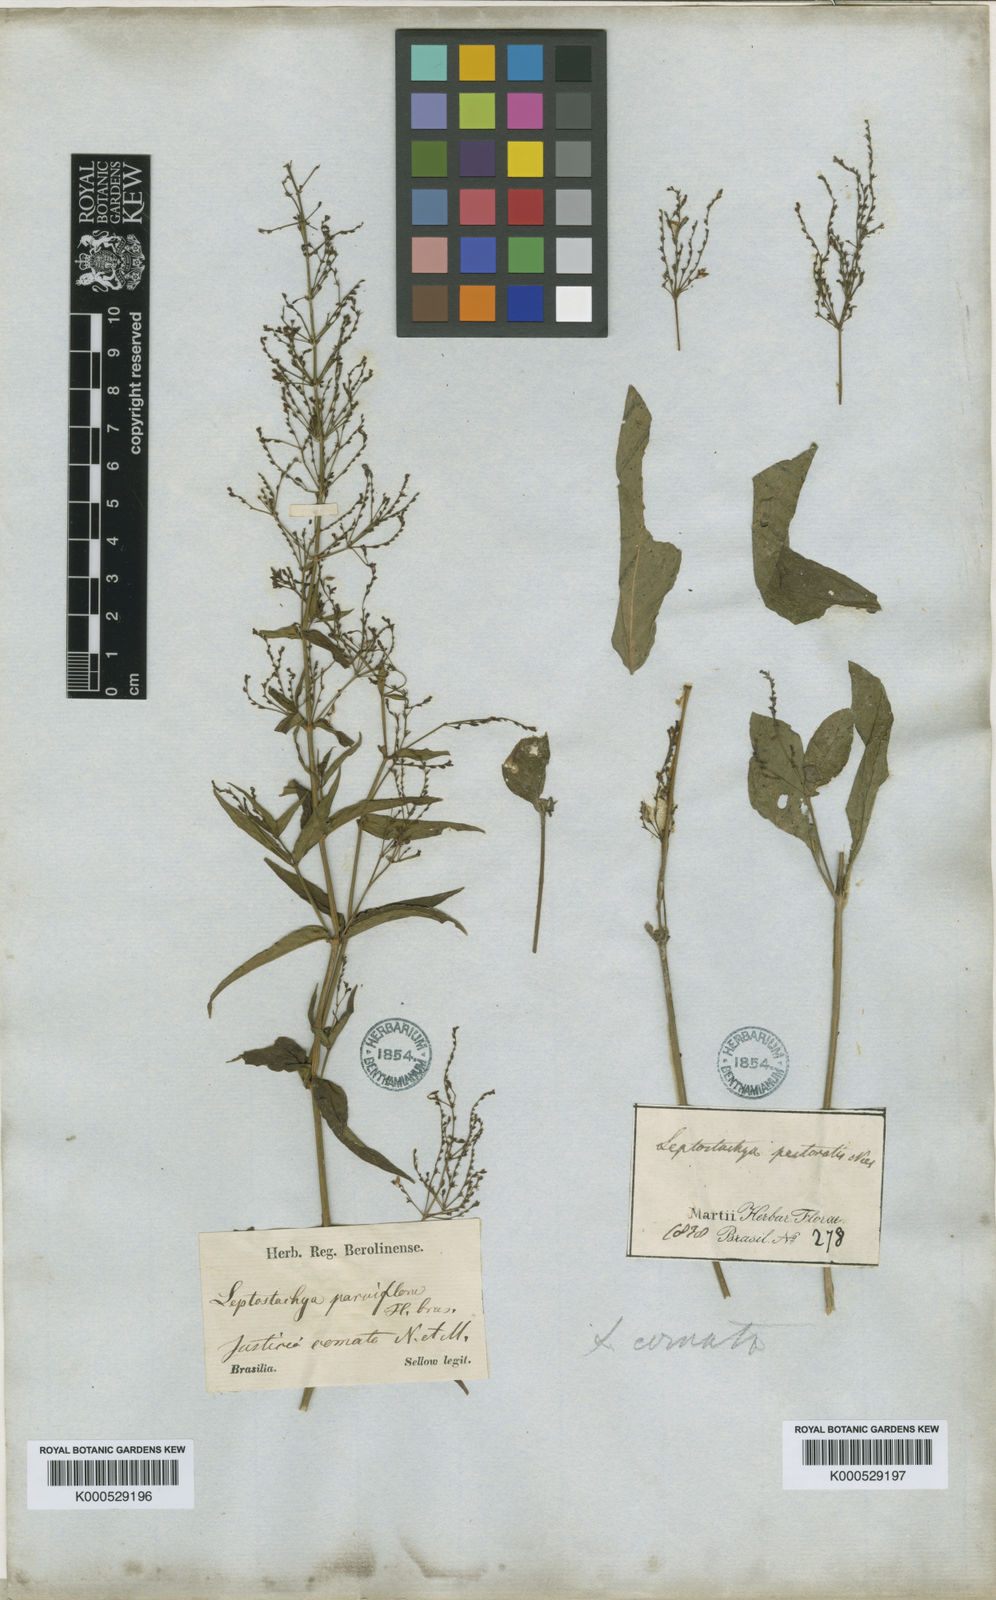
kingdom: Plantae
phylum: Tracheophyta
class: Magnoliopsida
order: Lamiales
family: Acanthaceae
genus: Dianthera
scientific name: Dianthera comata
